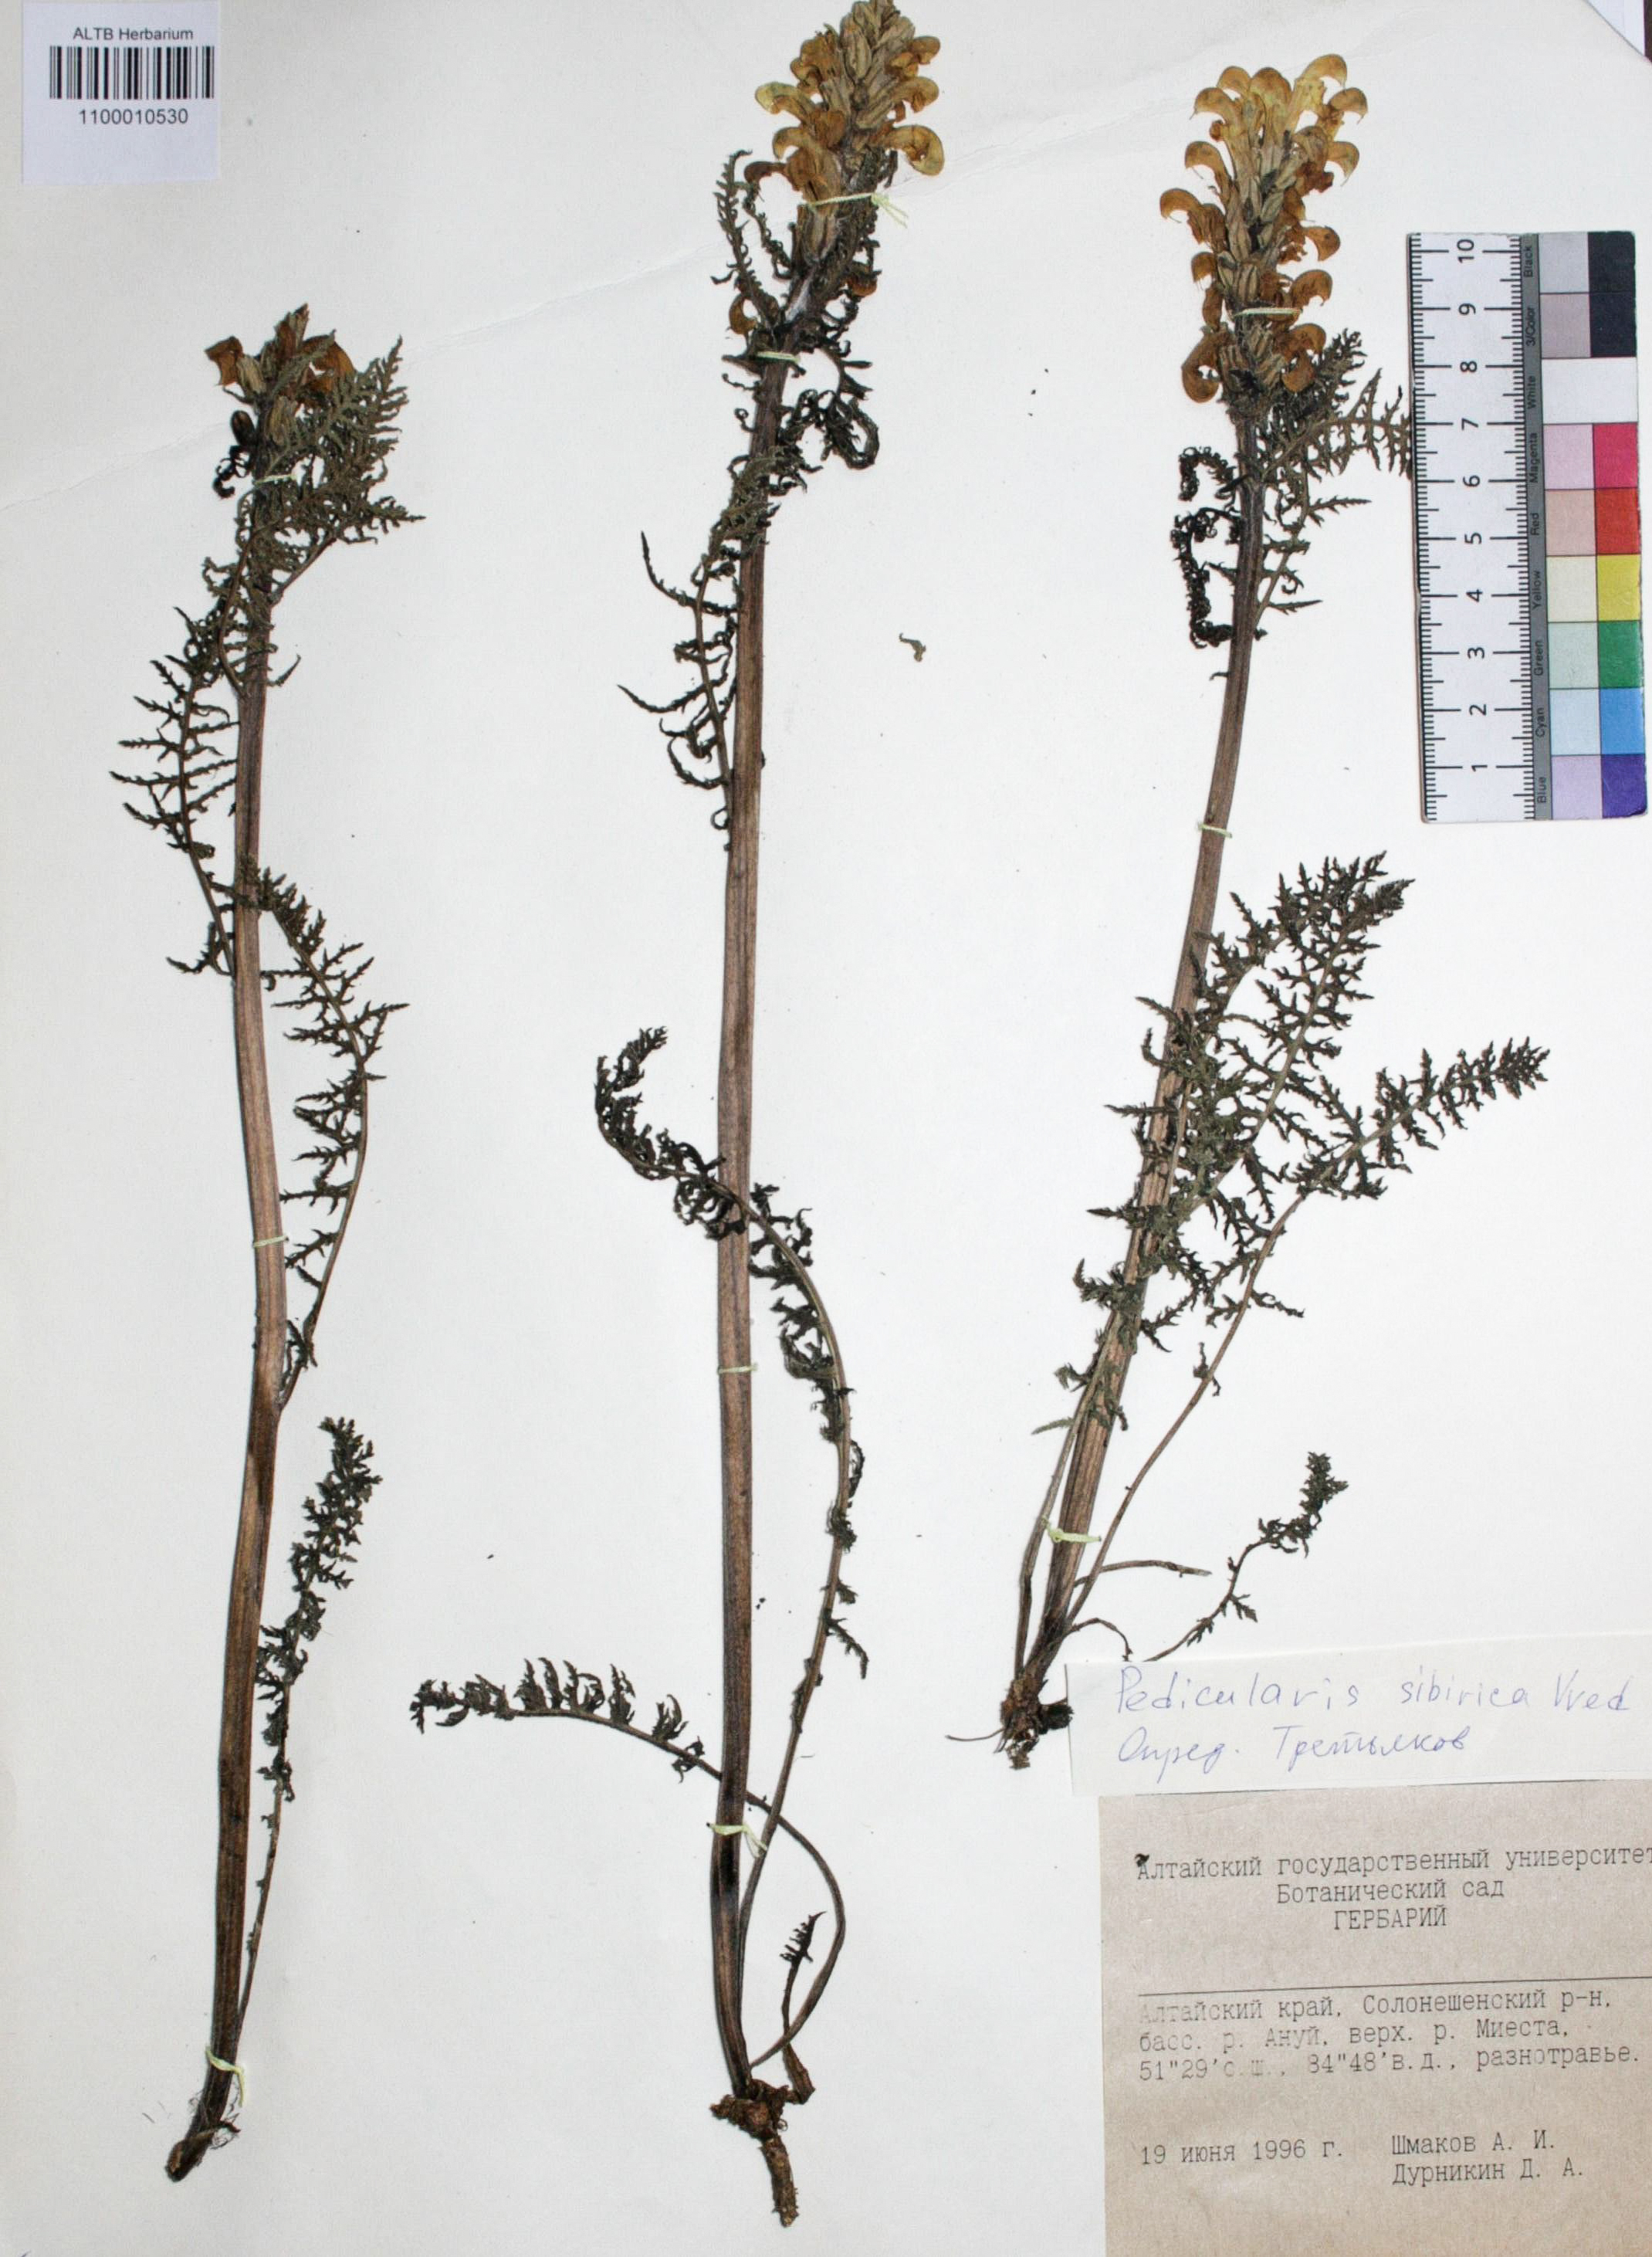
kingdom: Plantae
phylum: Tracheophyta
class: Magnoliopsida
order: Lamiales
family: Orobanchaceae
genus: Pedicularis
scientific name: Pedicularis sibirica
